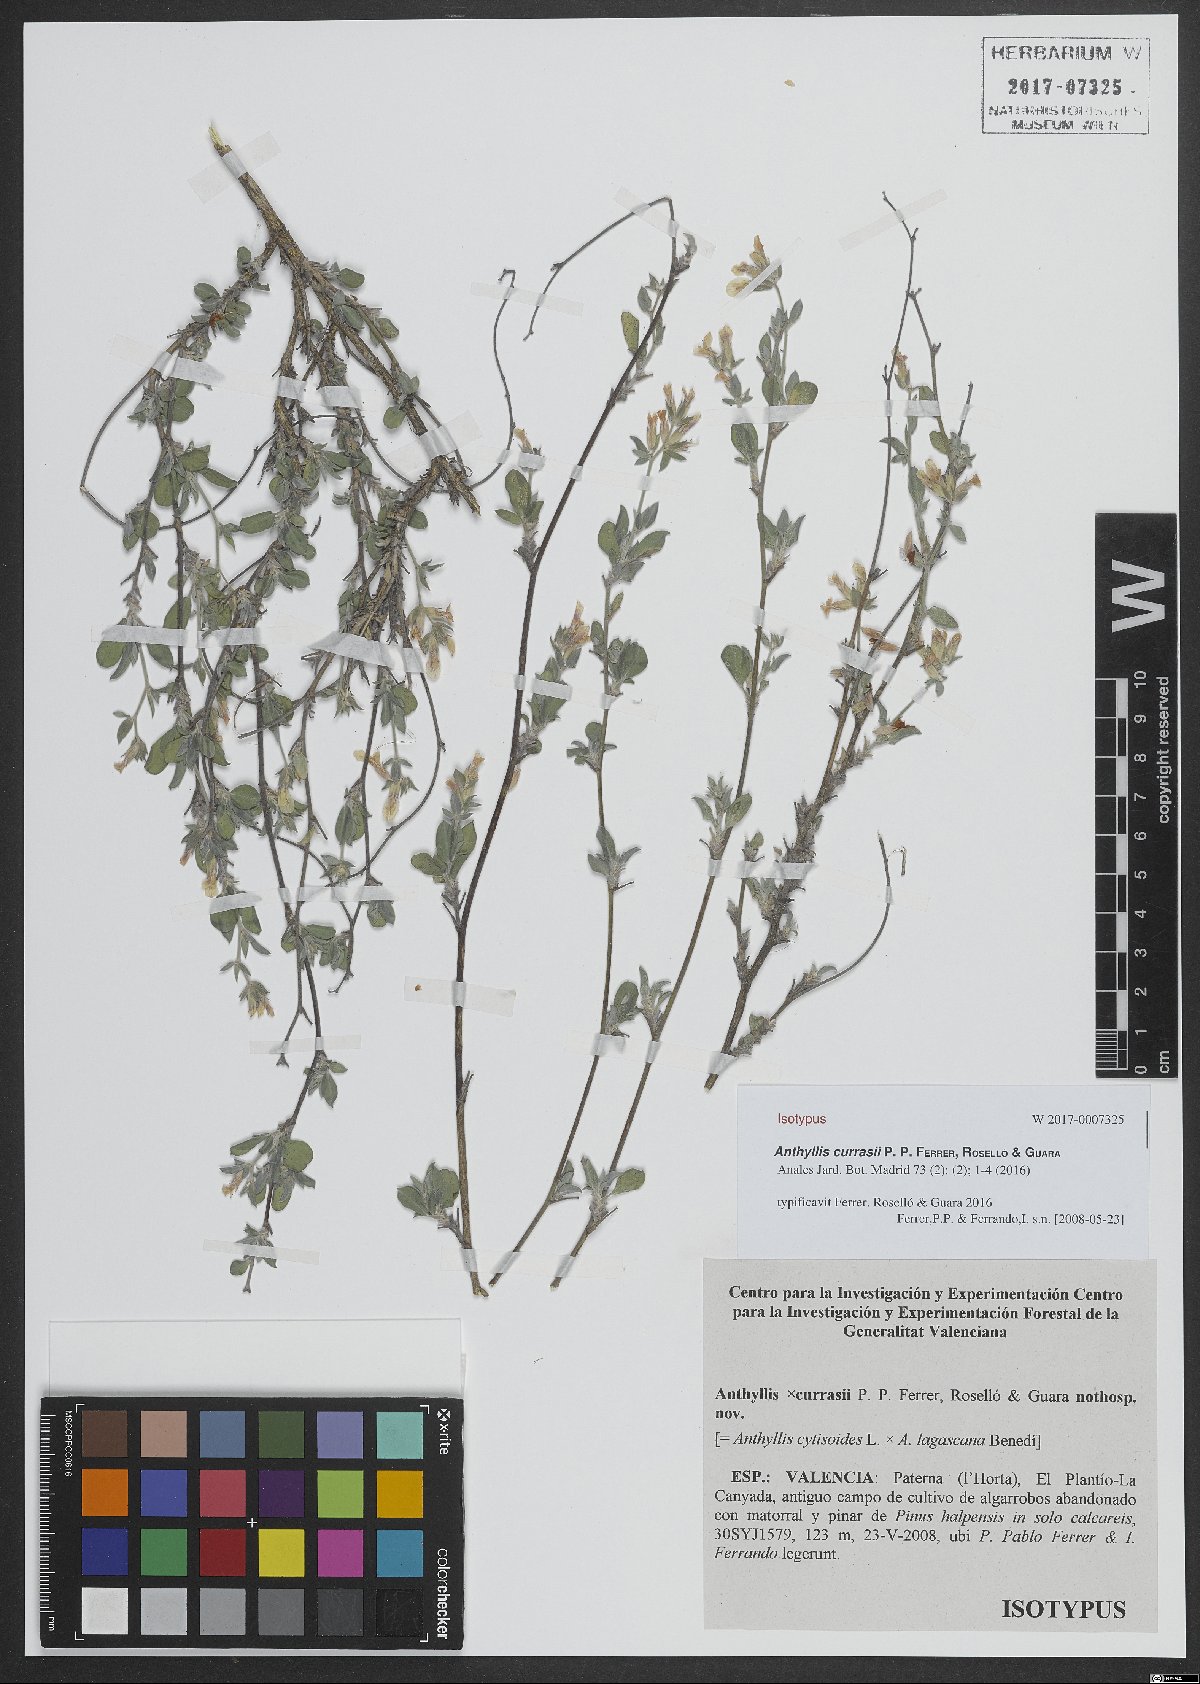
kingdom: Plantae
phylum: Tracheophyta
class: Magnoliopsida
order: Fabales
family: Fabaceae
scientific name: Fabaceae
